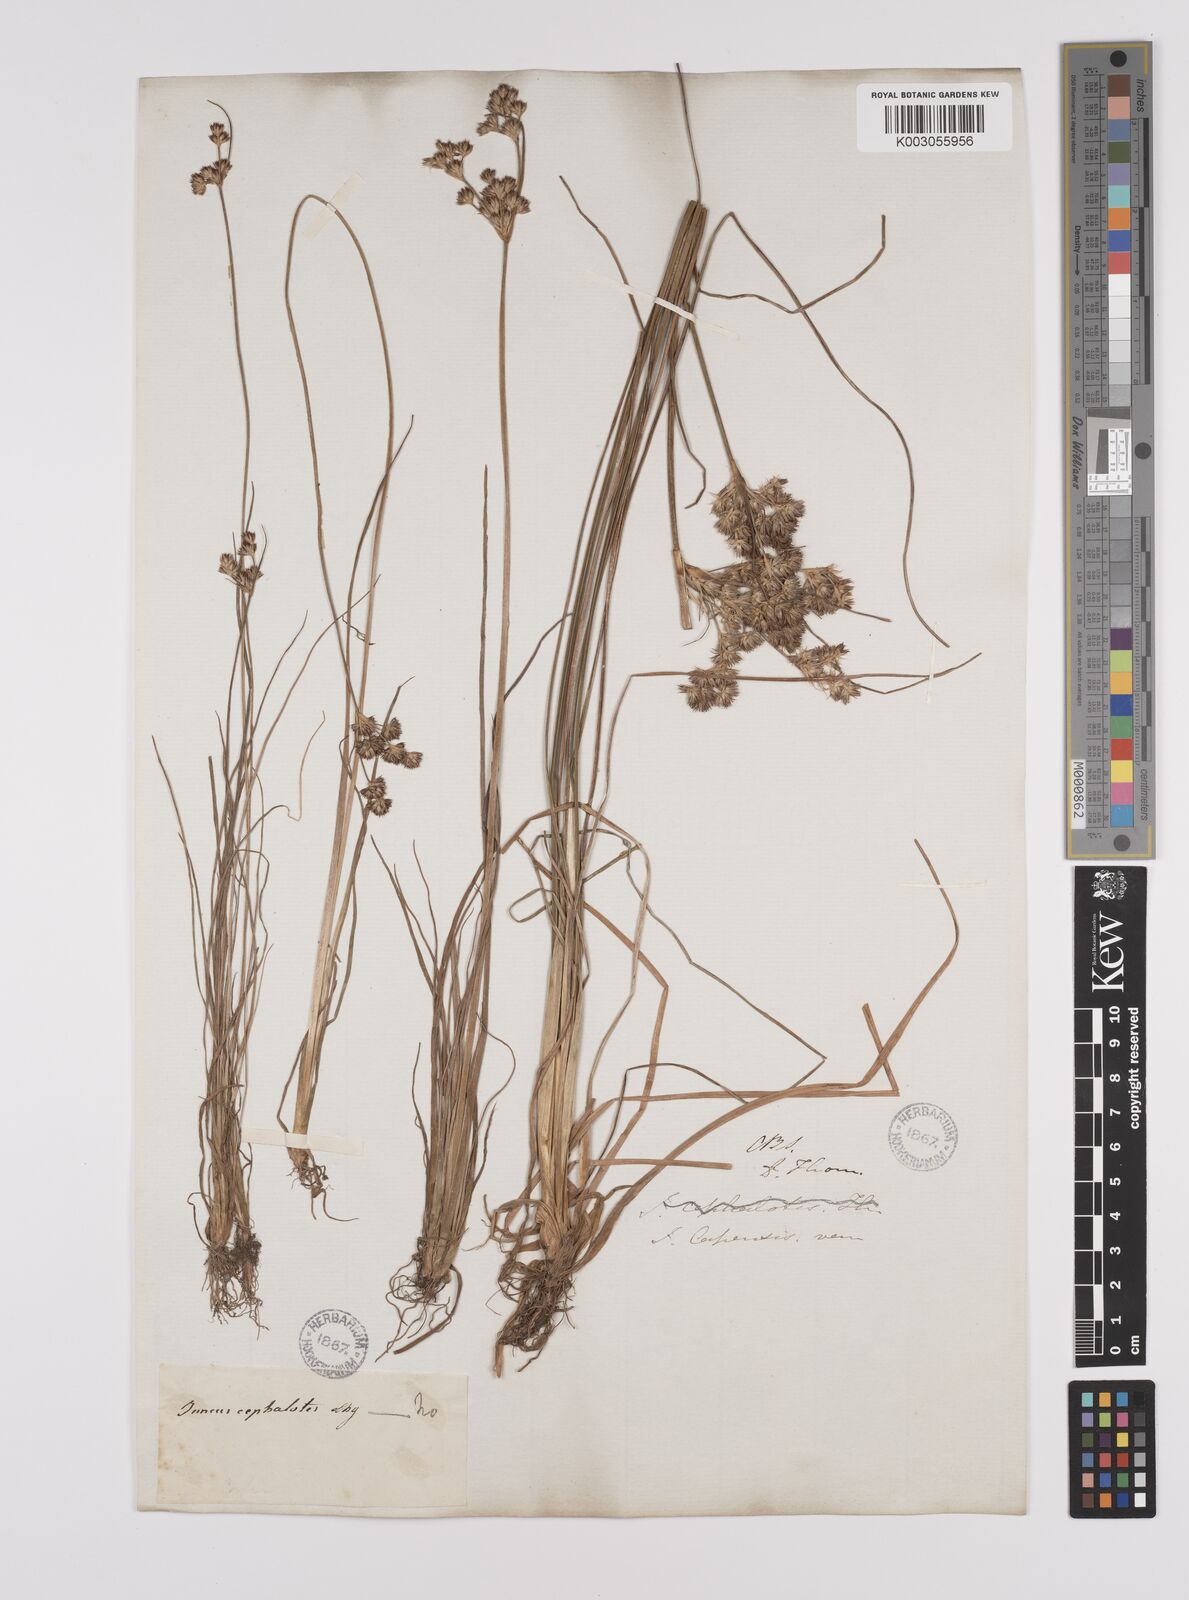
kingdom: Plantae
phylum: Tracheophyta
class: Liliopsida
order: Poales
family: Juncaceae
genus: Juncus
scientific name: Juncus capensis
